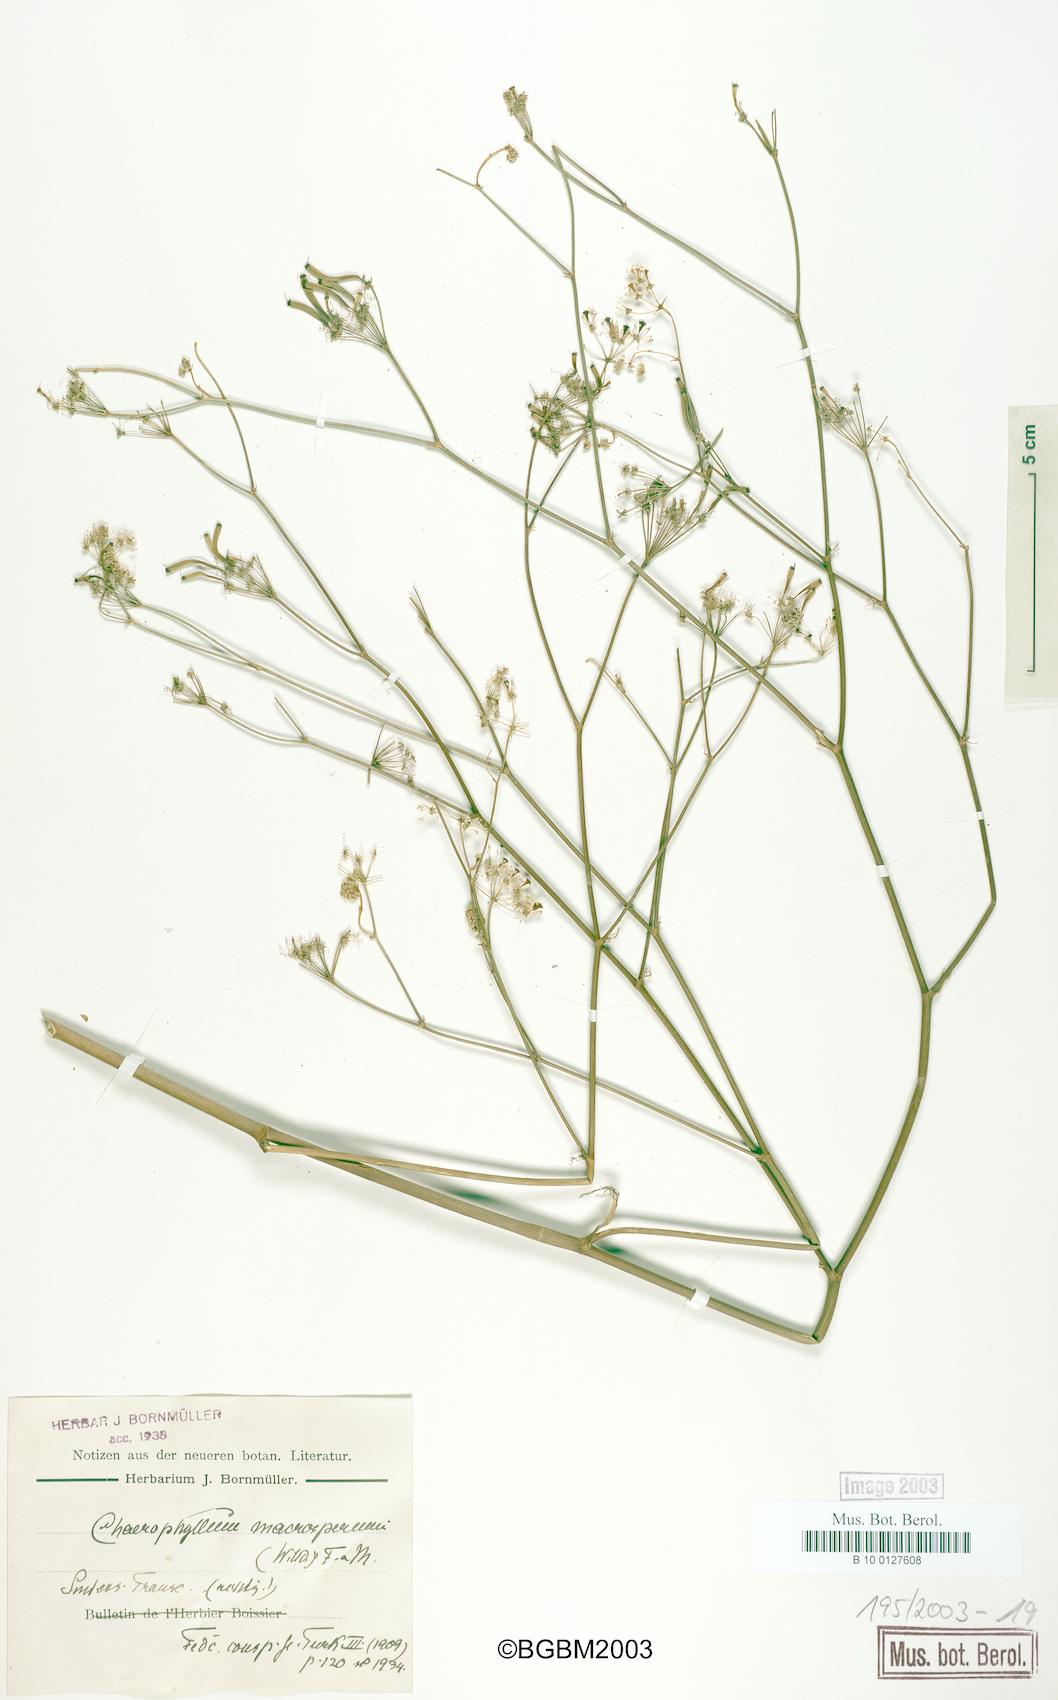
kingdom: Plantae
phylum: Tracheophyta
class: Magnoliopsida
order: Apiales
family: Apiaceae
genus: Chaerophyllum
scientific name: Chaerophyllum macrospermum
